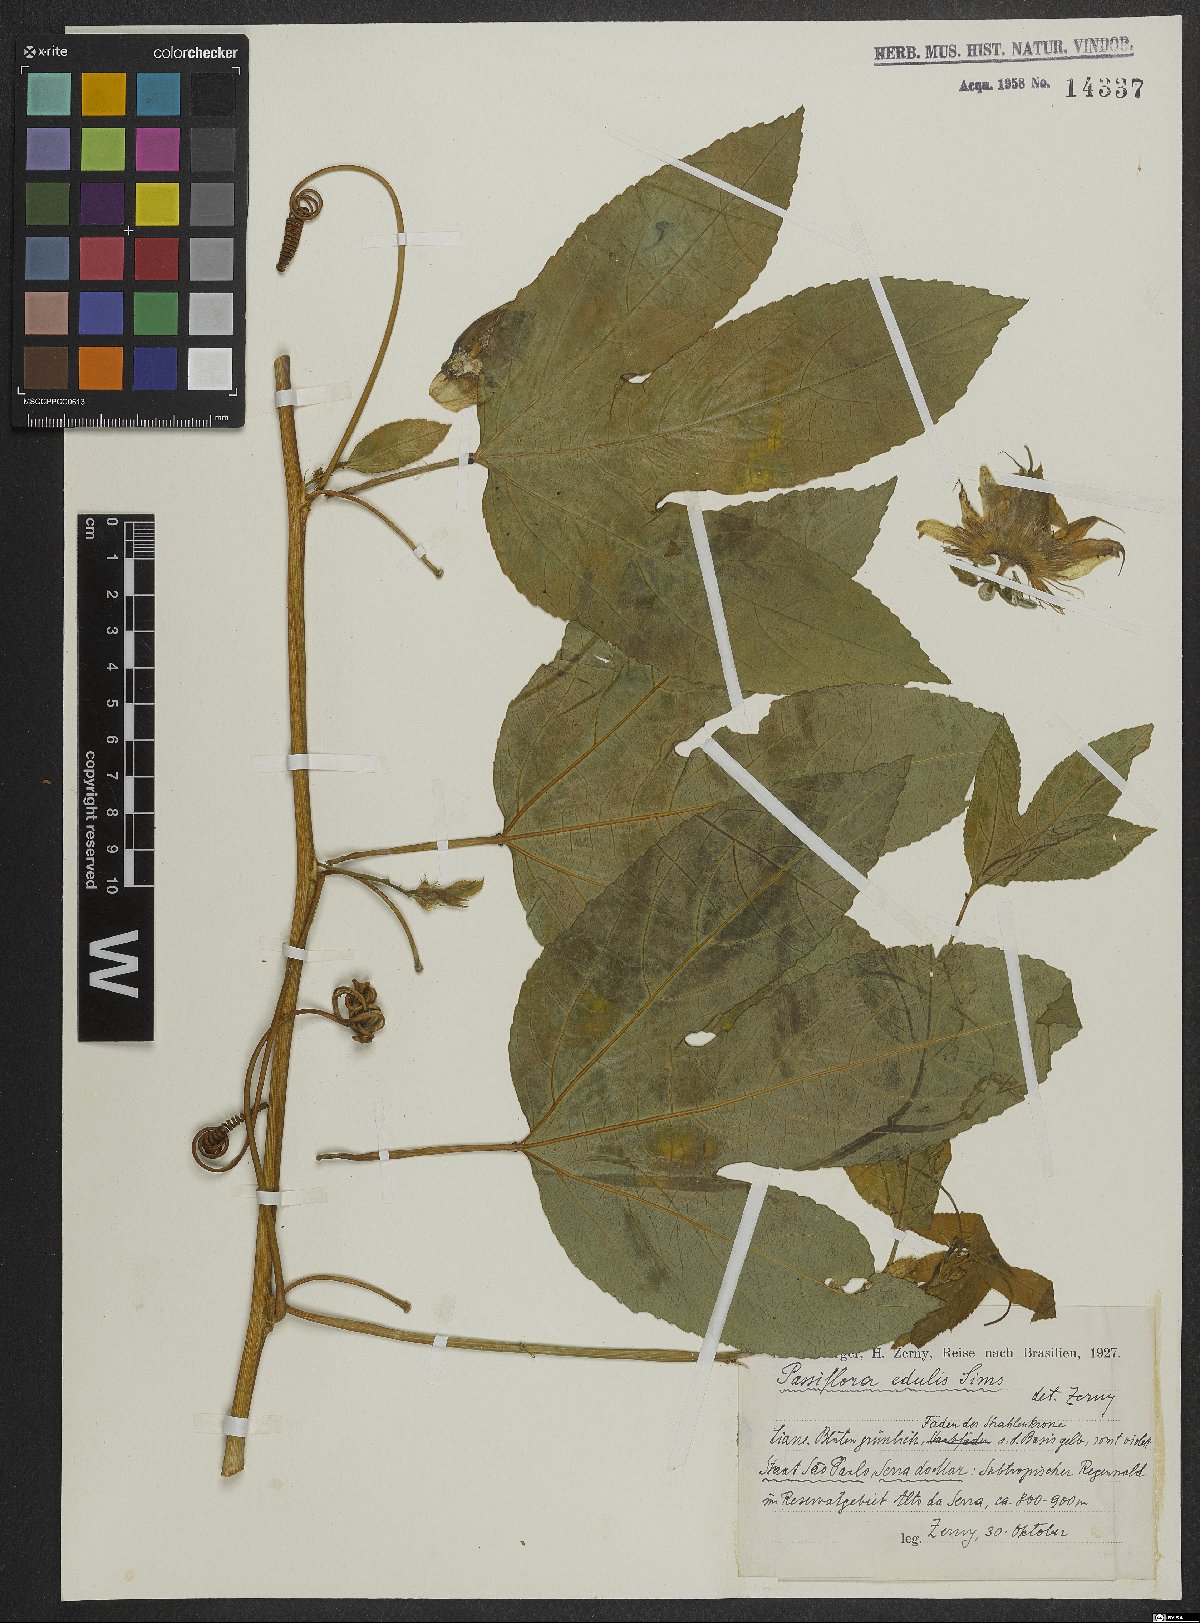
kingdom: Plantae
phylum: Tracheophyta
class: Magnoliopsida
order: Malpighiales
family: Passifloraceae
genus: Passiflora
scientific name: Passiflora edulis
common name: Purple granadilla
